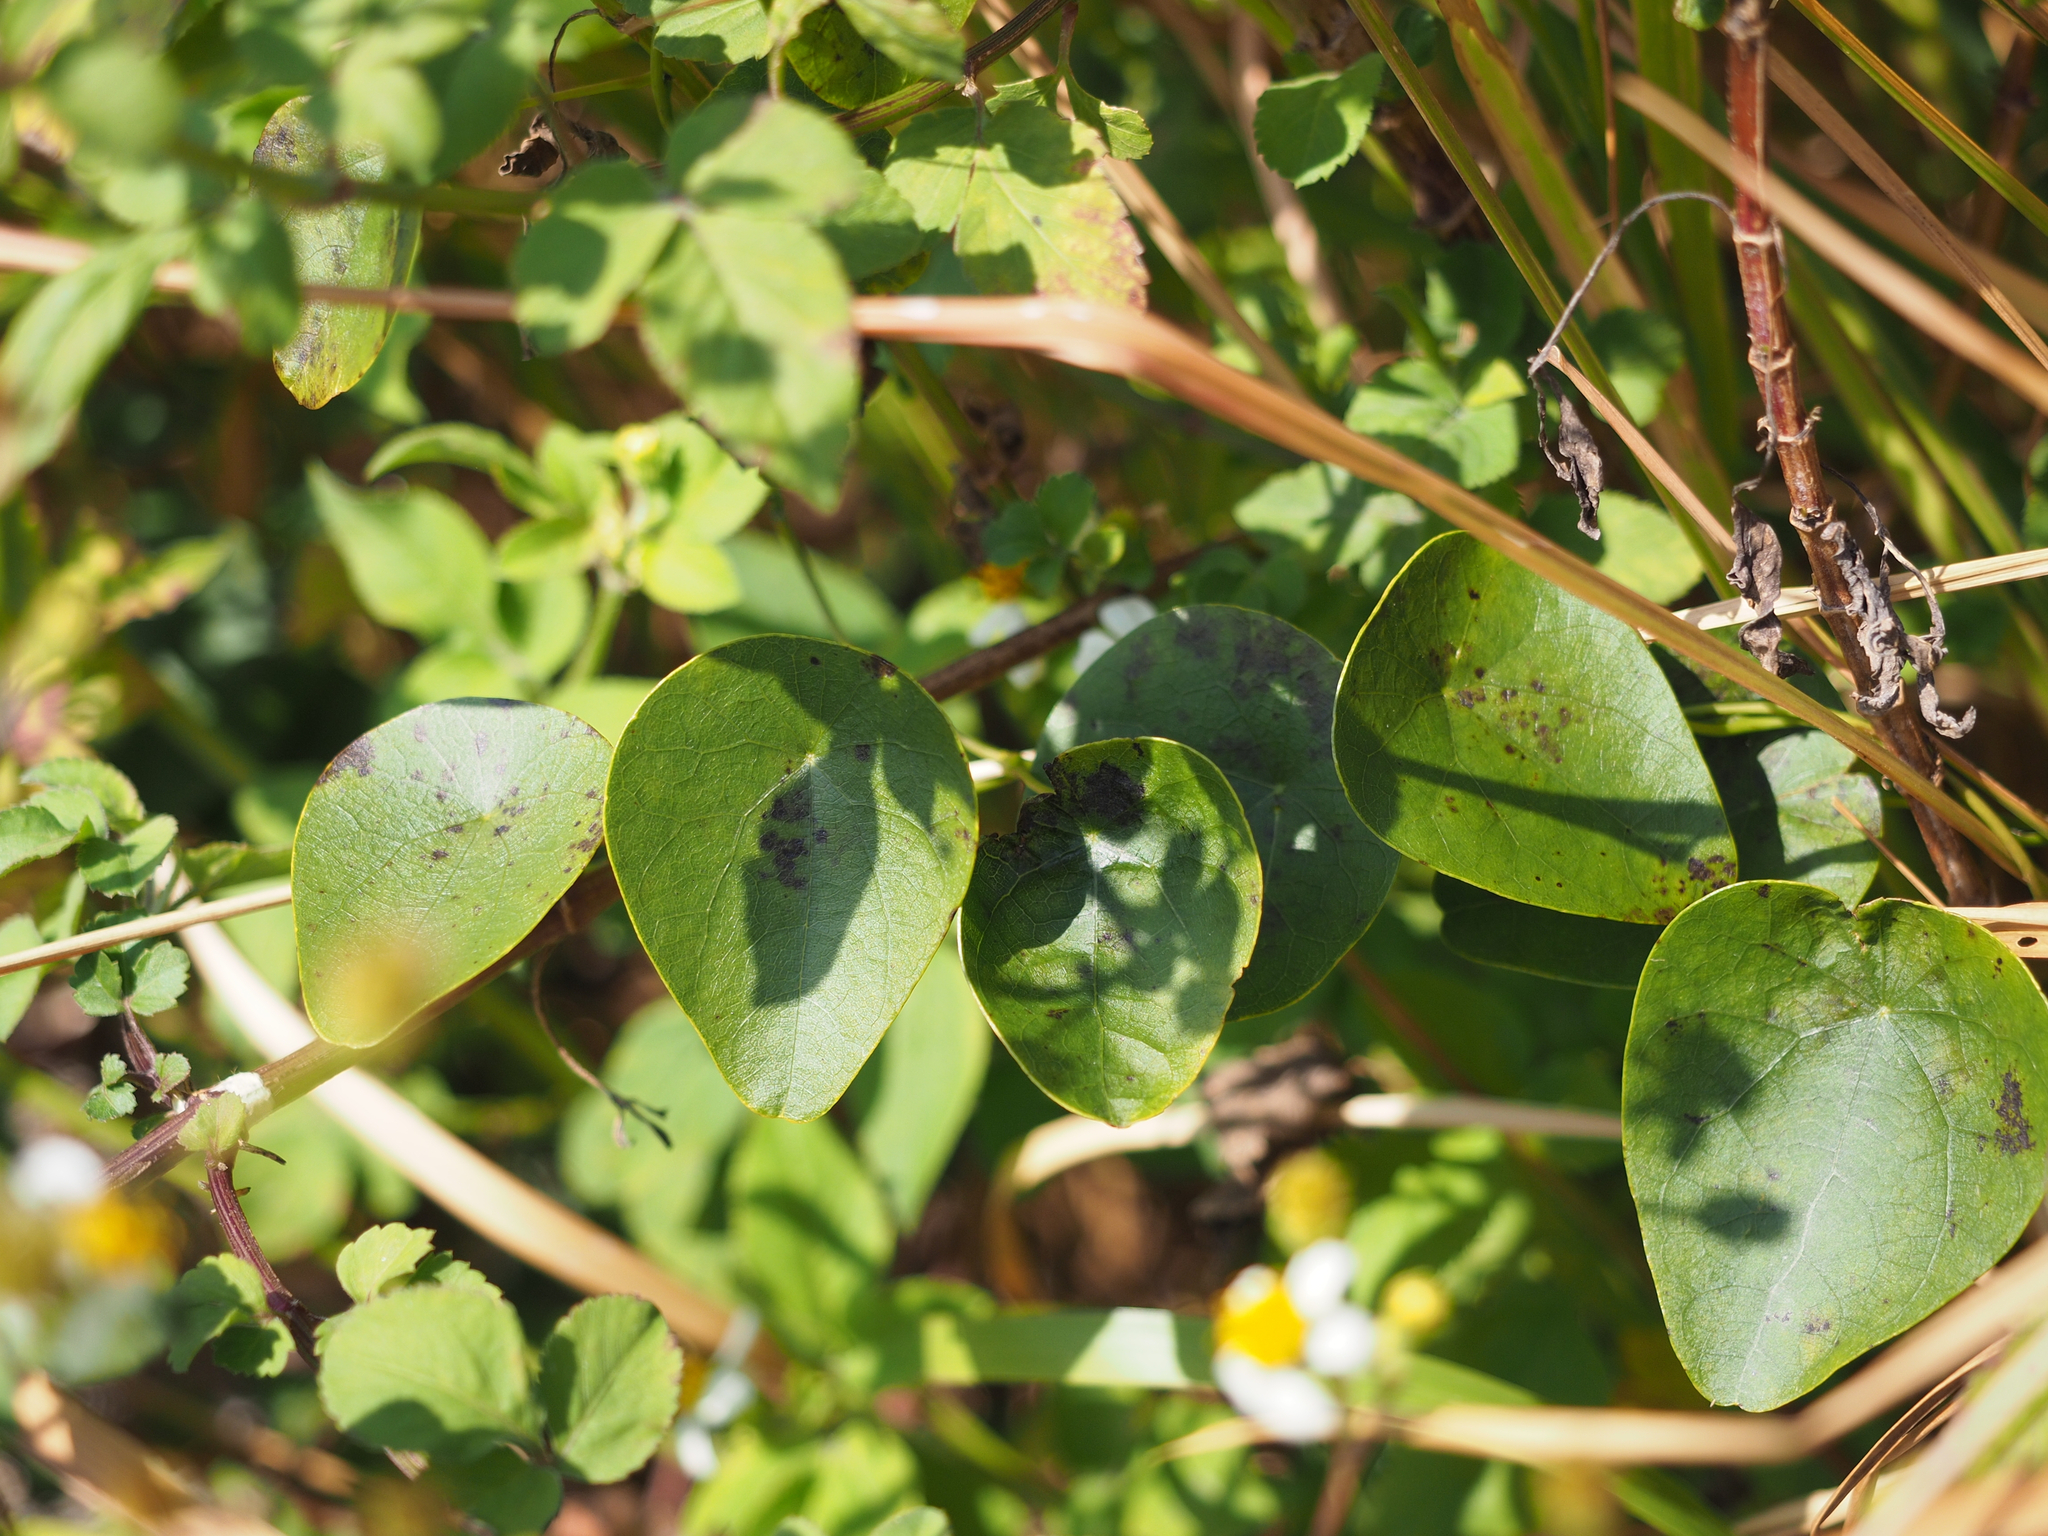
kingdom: Plantae
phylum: Tracheophyta
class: Magnoliopsida
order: Ranunculales
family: Menispermaceae
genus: Stephania
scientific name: Stephania japonica
